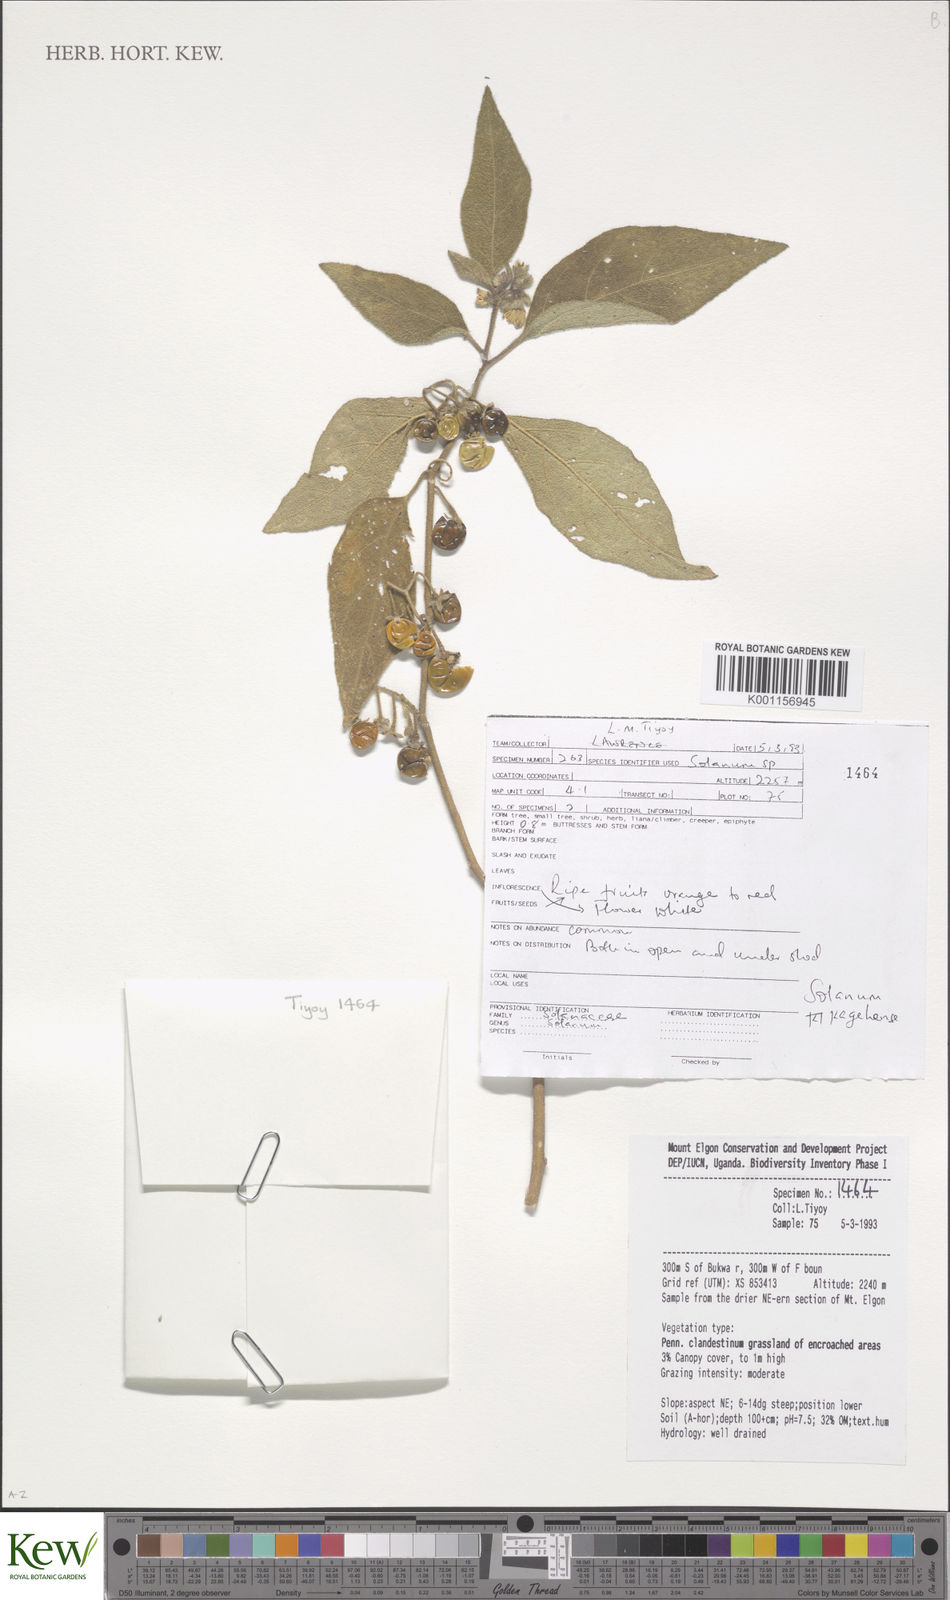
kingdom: Plantae
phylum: Tracheophyta
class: Magnoliopsida
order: Solanales
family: Solanaceae
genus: Solanum
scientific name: Solanum anguivi
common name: Forest bitterberry
